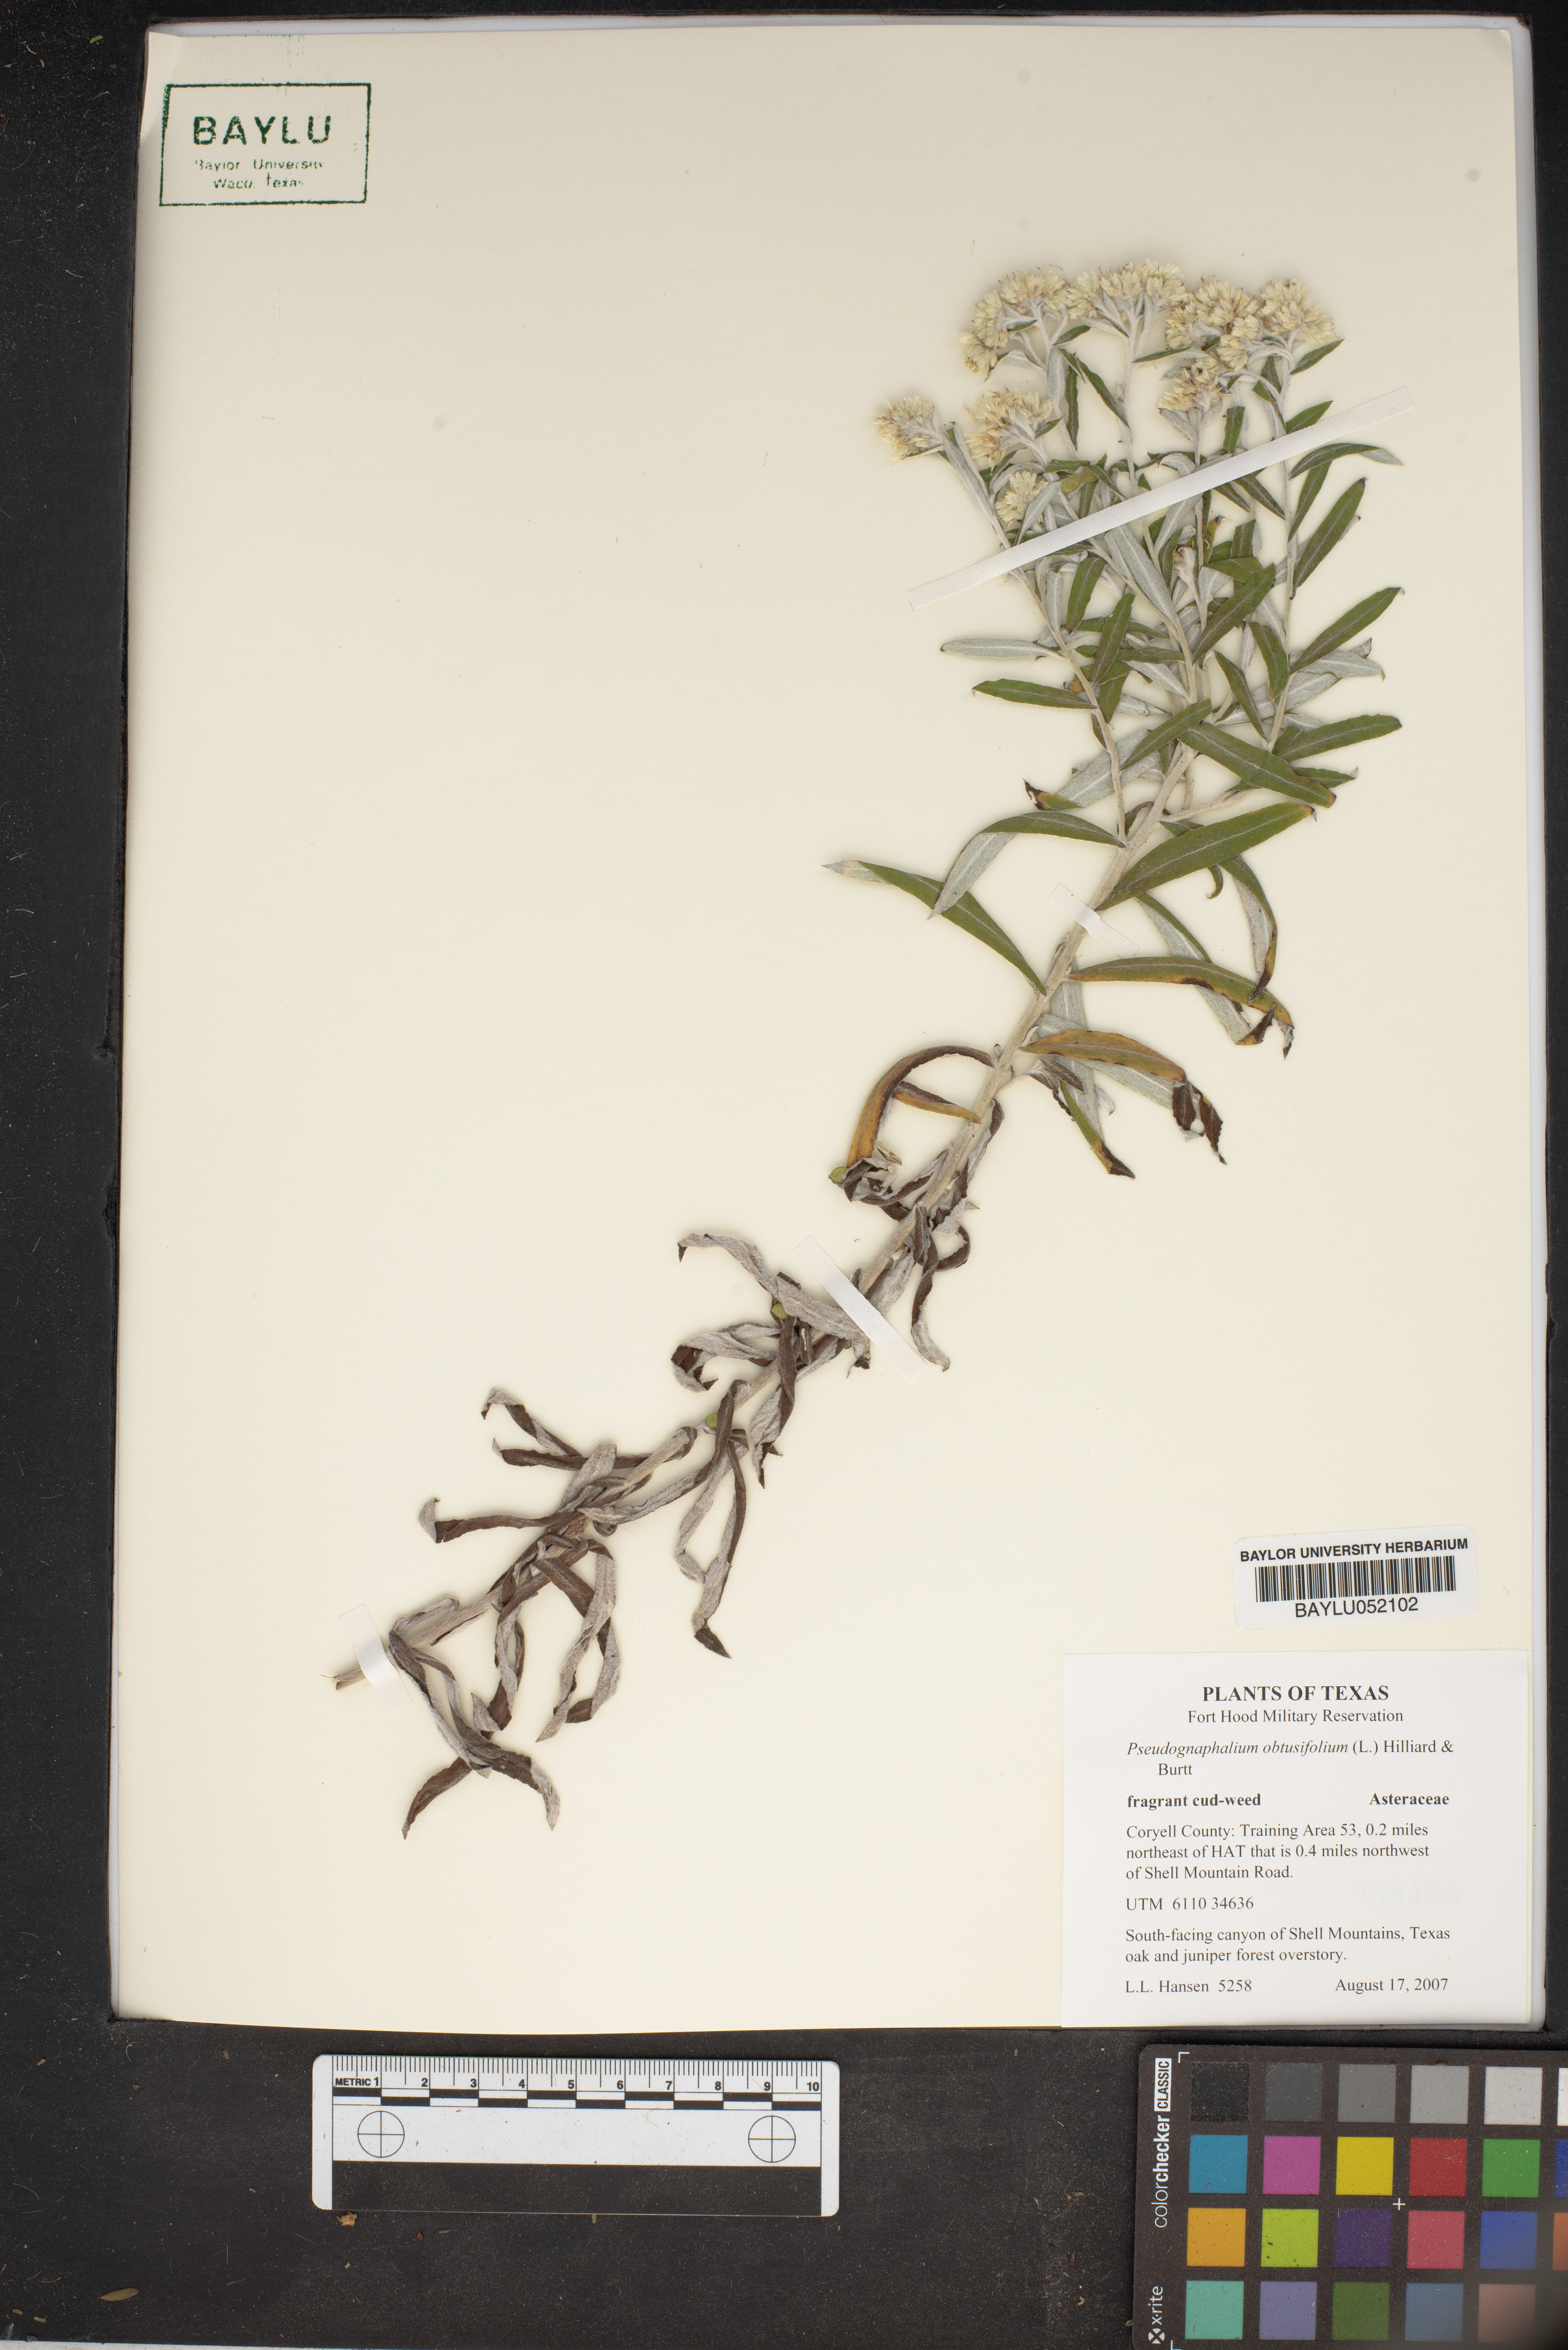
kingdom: Plantae
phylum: Tracheophyta
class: Magnoliopsida
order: Asterales
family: Asteraceae
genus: Pseudognaphalium
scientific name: Pseudognaphalium obtusifolium
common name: Eastern rabbit-tobacco
